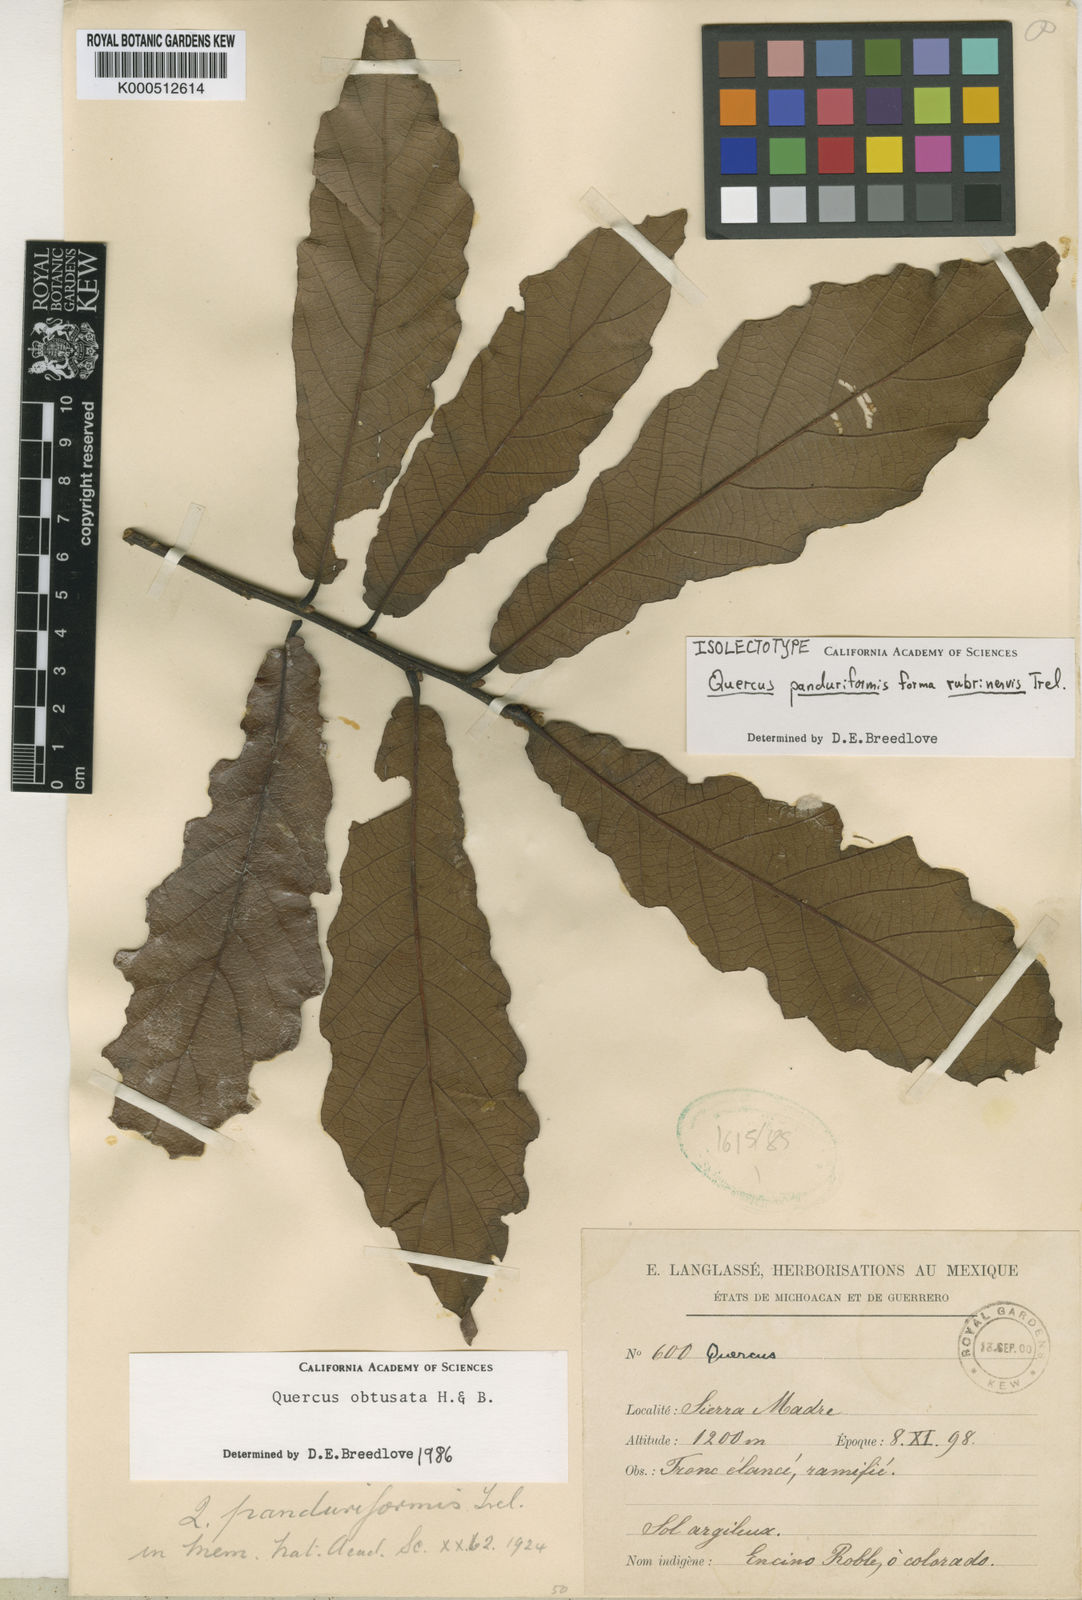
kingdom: Plantae
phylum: Tracheophyta
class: Magnoliopsida
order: Fagales
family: Fagaceae
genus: Quercus
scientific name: Quercus obtusata
